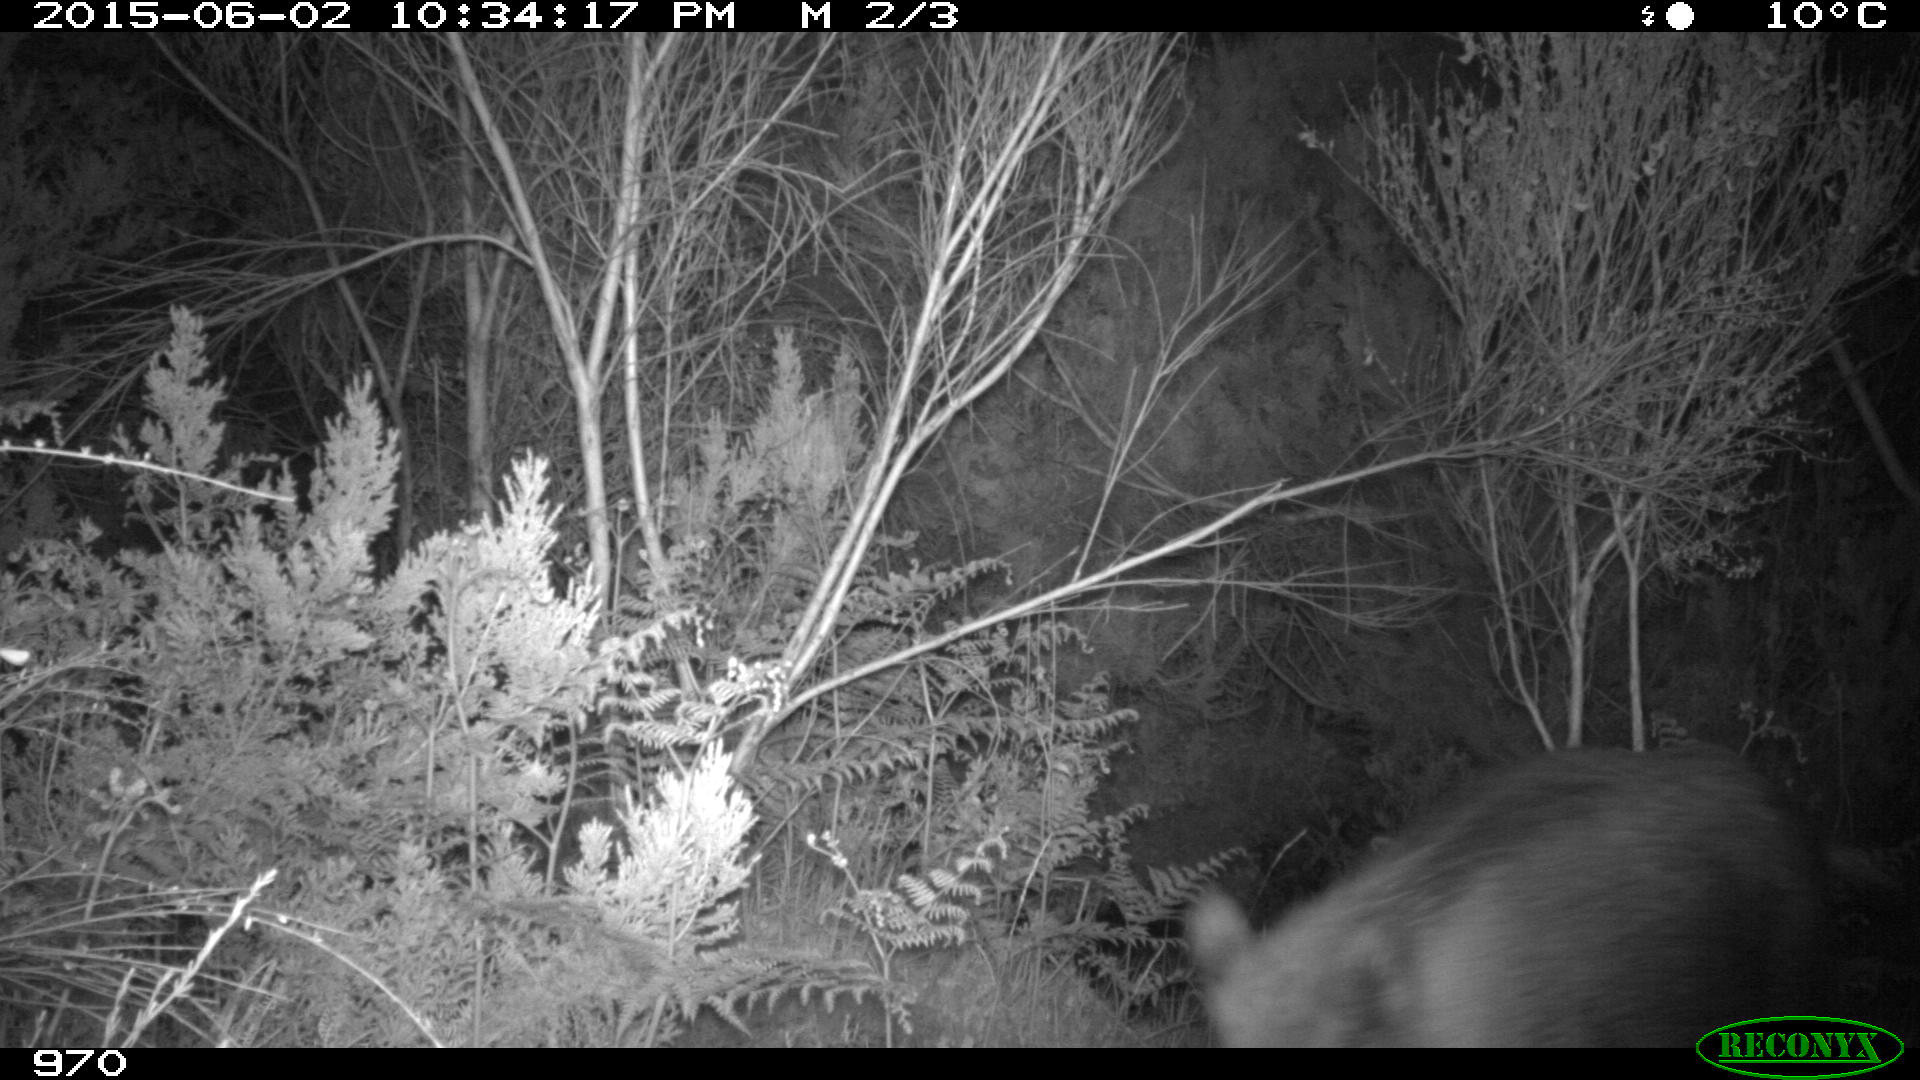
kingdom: Animalia
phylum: Chordata
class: Mammalia
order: Artiodactyla
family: Suidae
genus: Sus
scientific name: Sus scrofa
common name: Wild boar
